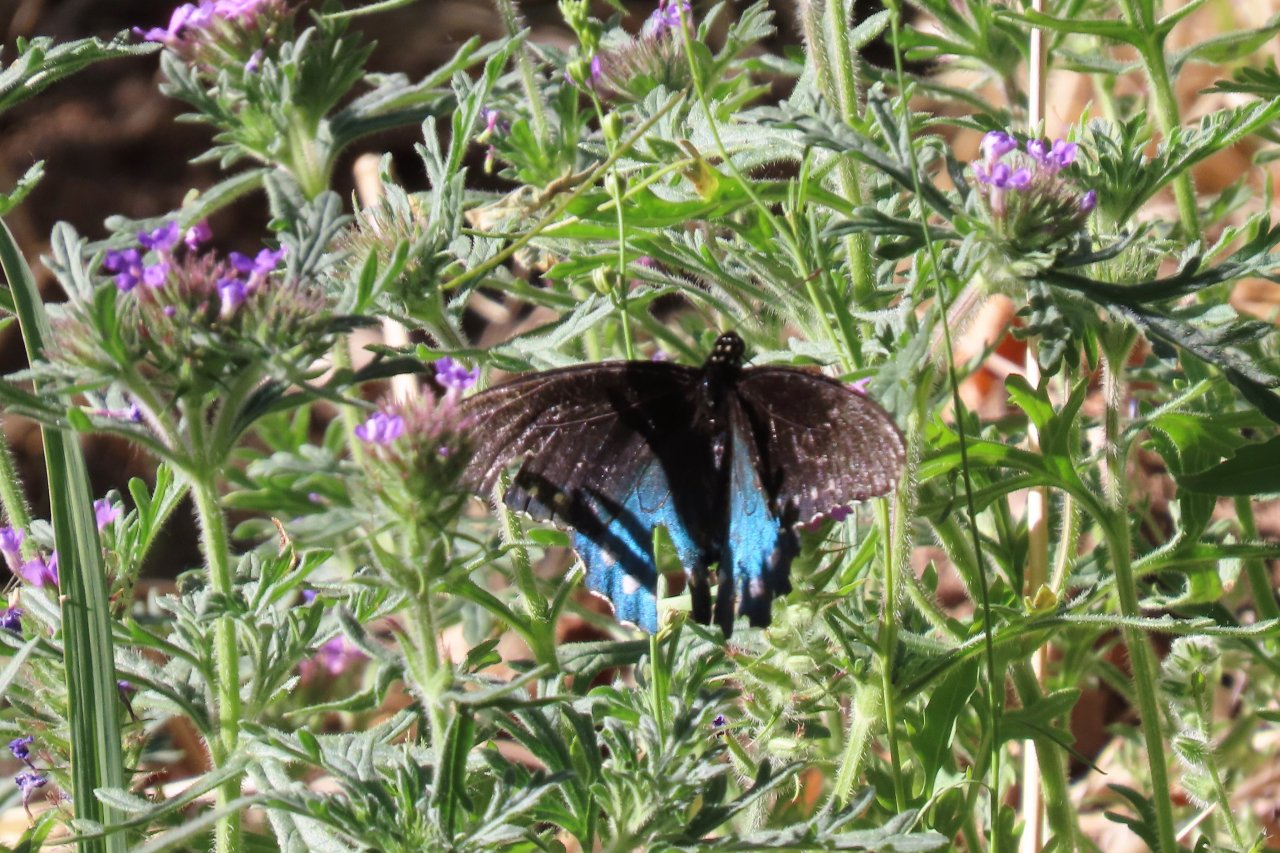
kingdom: Animalia
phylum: Arthropoda
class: Insecta
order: Lepidoptera
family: Papilionidae
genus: Battus
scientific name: Battus philenor
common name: Pipevine Swallowtail
